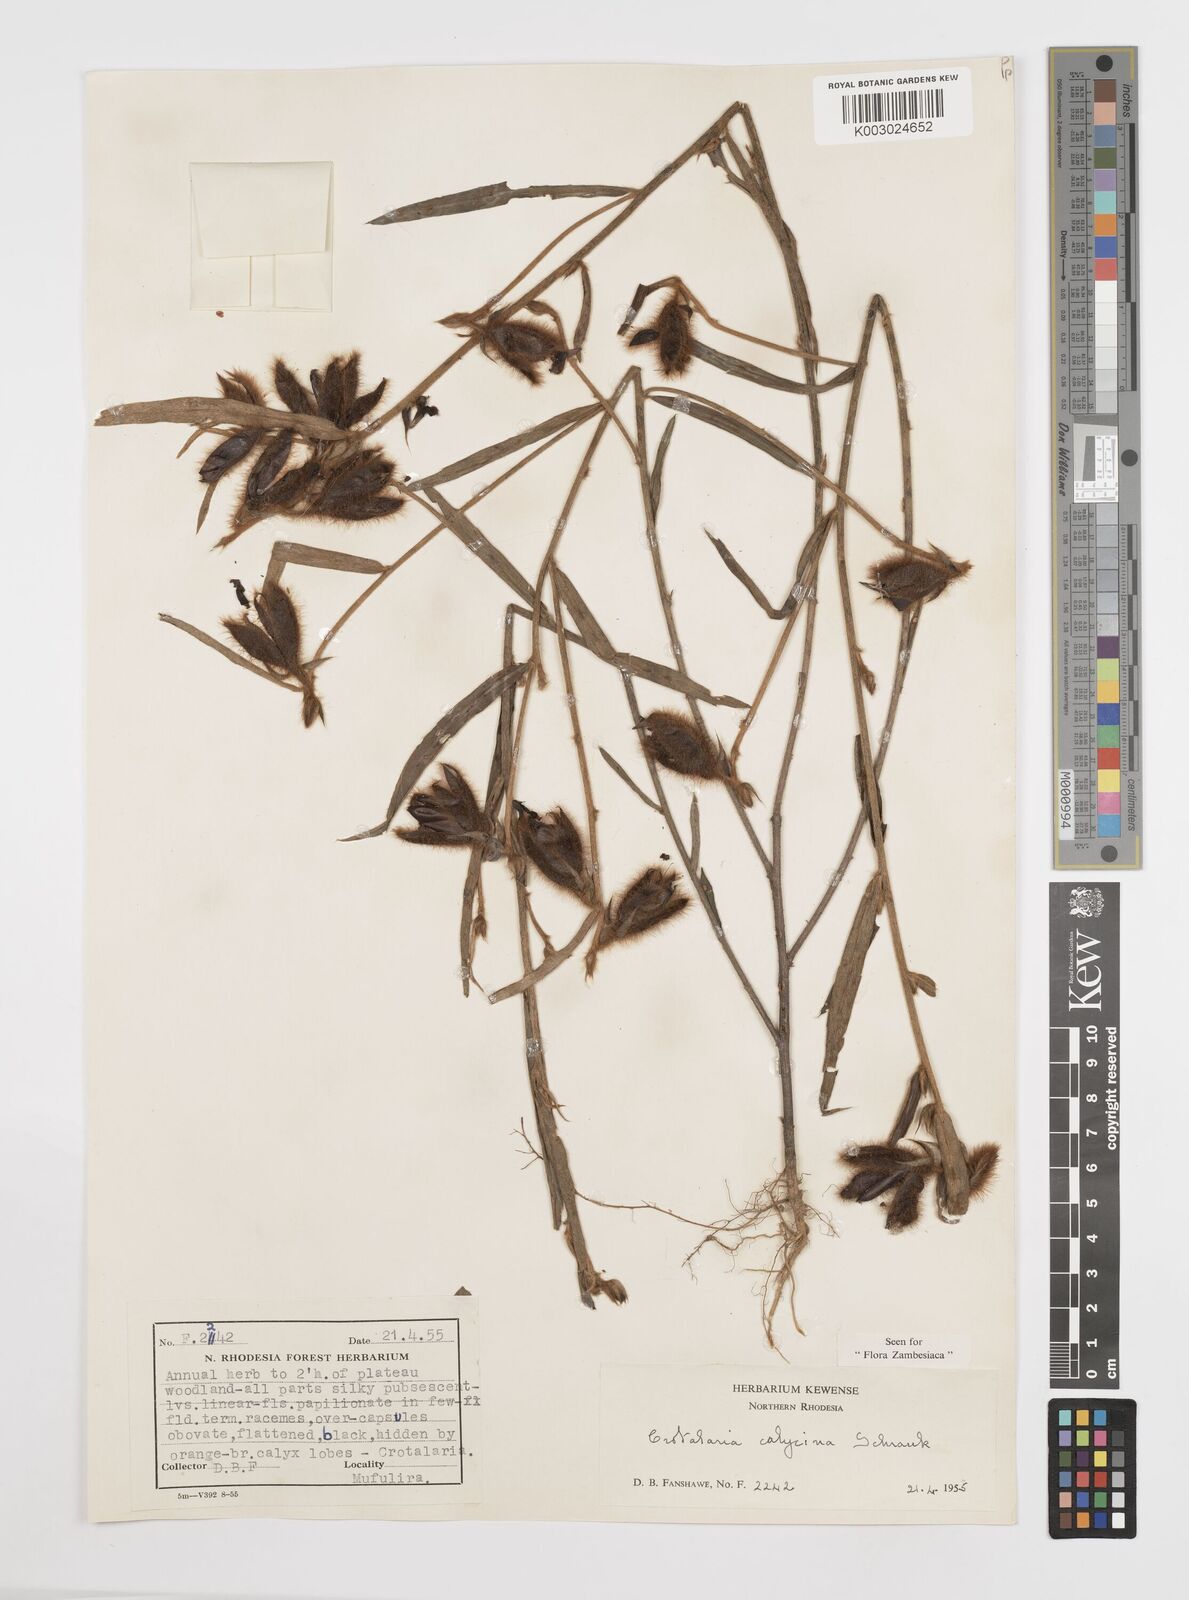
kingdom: Plantae
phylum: Tracheophyta
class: Magnoliopsida
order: Fabales
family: Fabaceae
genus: Crotalaria
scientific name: Crotalaria calycina
